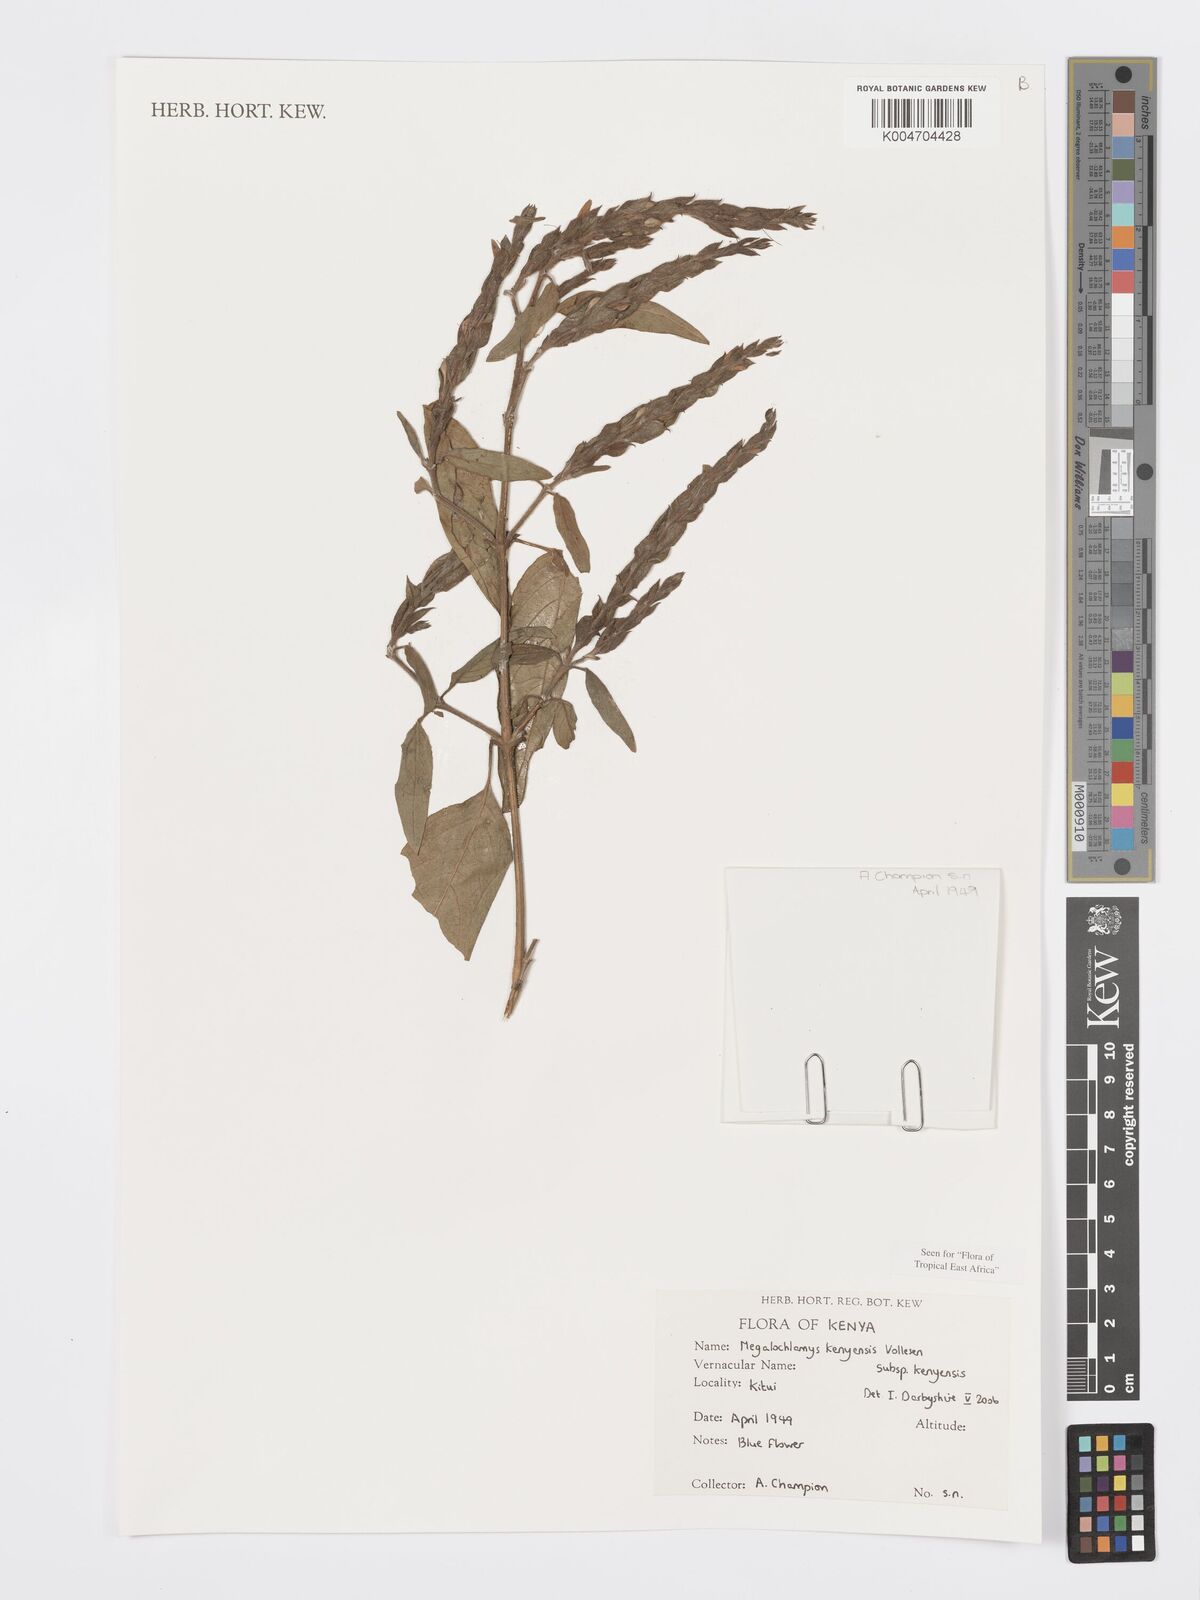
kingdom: Plantae
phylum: Tracheophyta
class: Magnoliopsida
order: Lamiales
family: Acanthaceae
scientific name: Acanthaceae
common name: Acanthaceae
